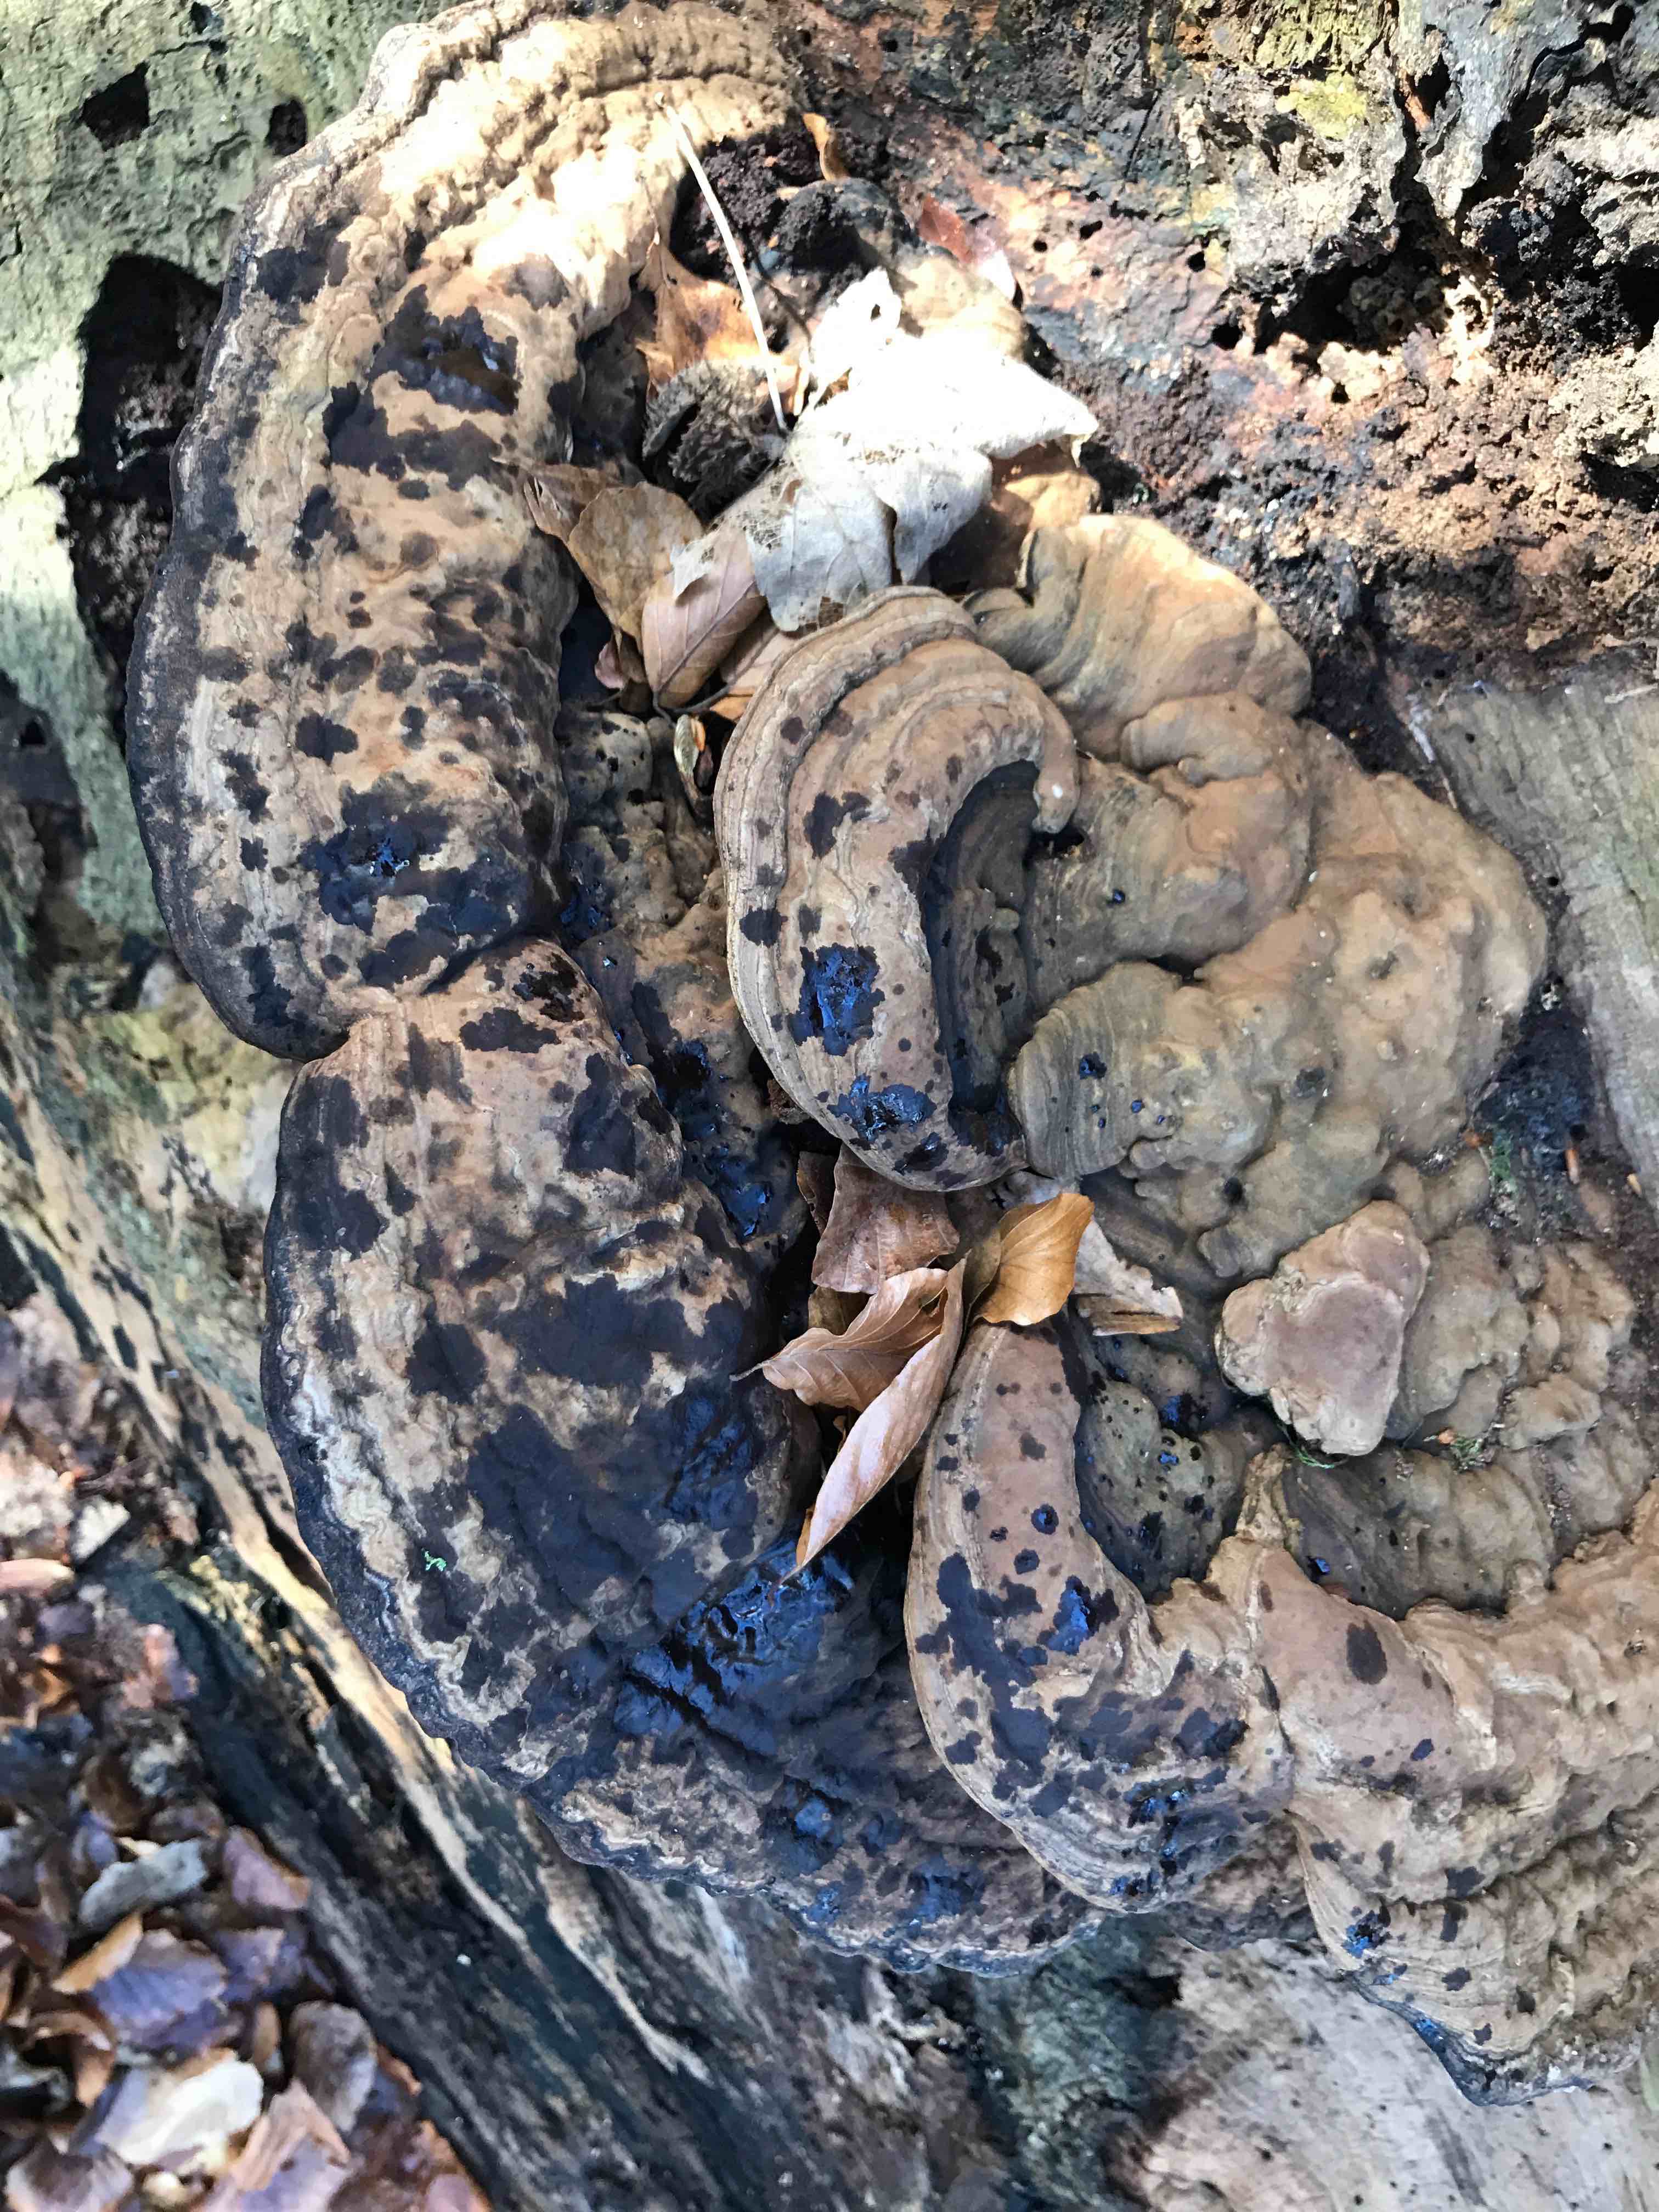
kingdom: Fungi
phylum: Basidiomycota
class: Agaricomycetes
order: Polyporales
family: Polyporaceae
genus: Ganoderma
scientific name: Ganoderma applanatum
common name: flad lakporesvamp
